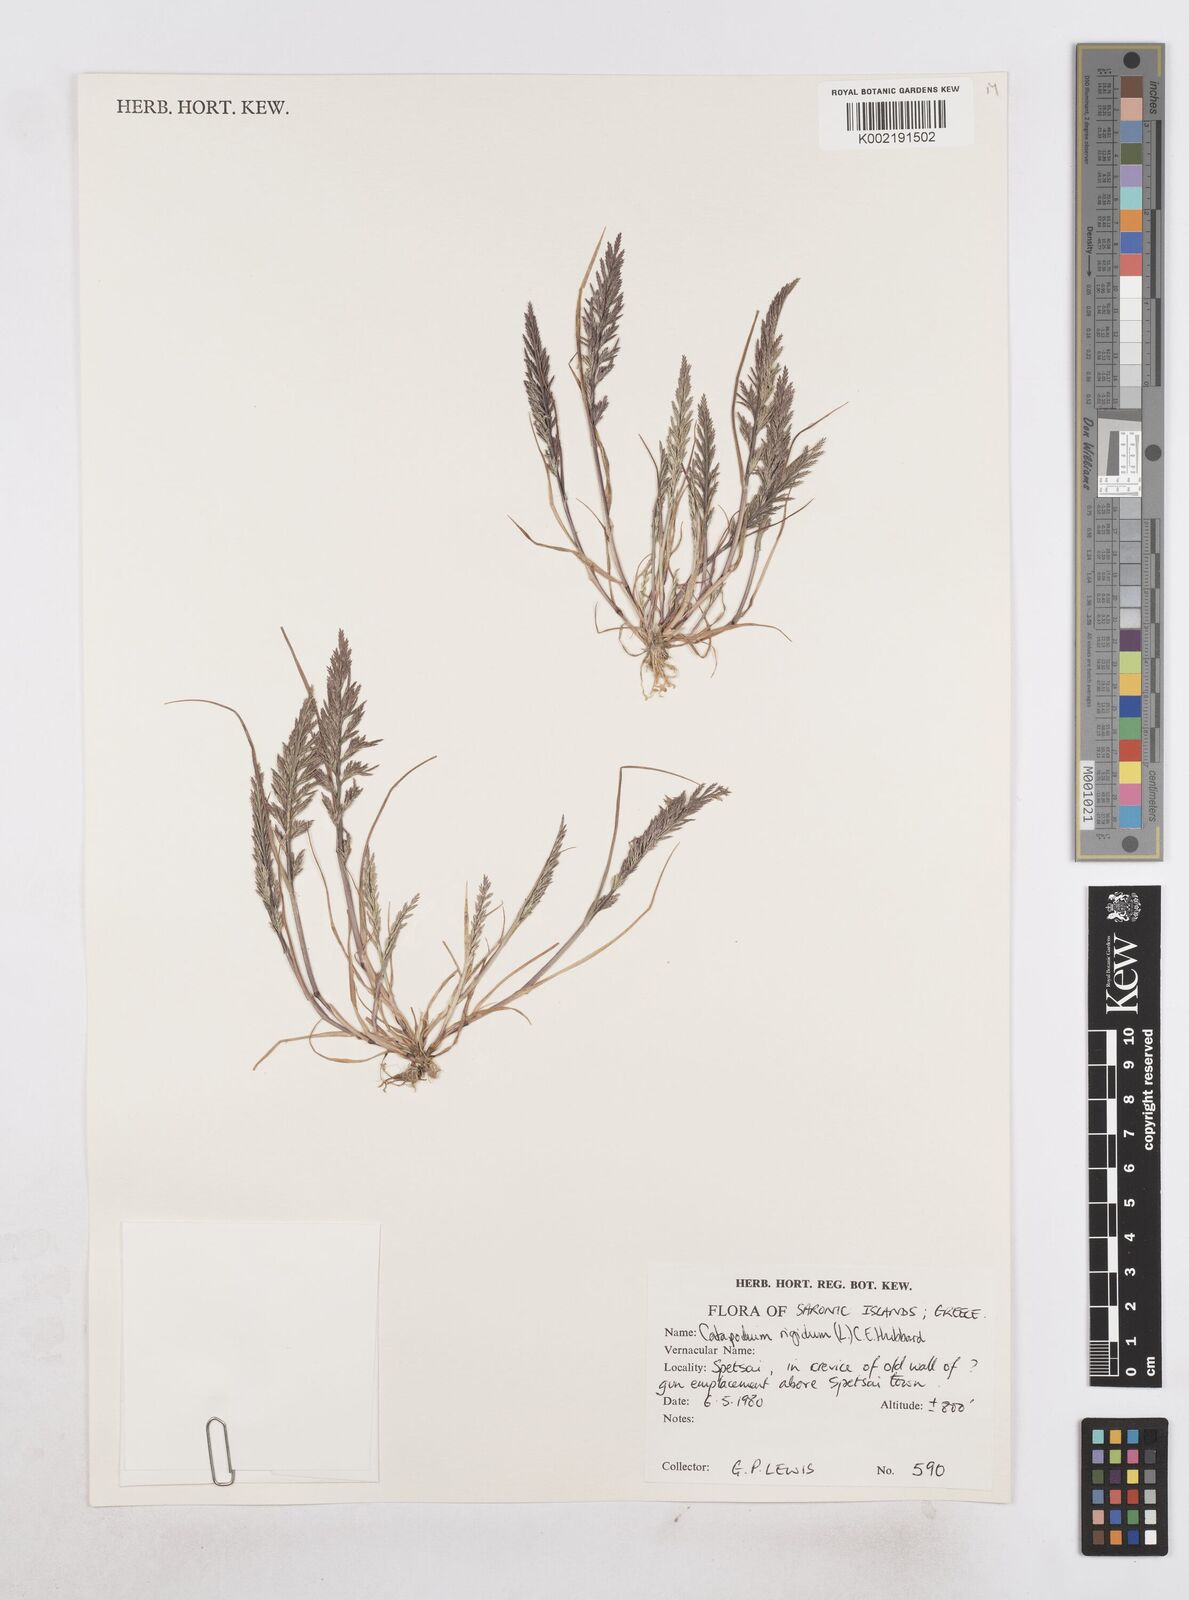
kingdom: Plantae
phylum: Tracheophyta
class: Liliopsida
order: Poales
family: Poaceae
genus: Catapodium
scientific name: Catapodium rigidum
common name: Fern-grass
